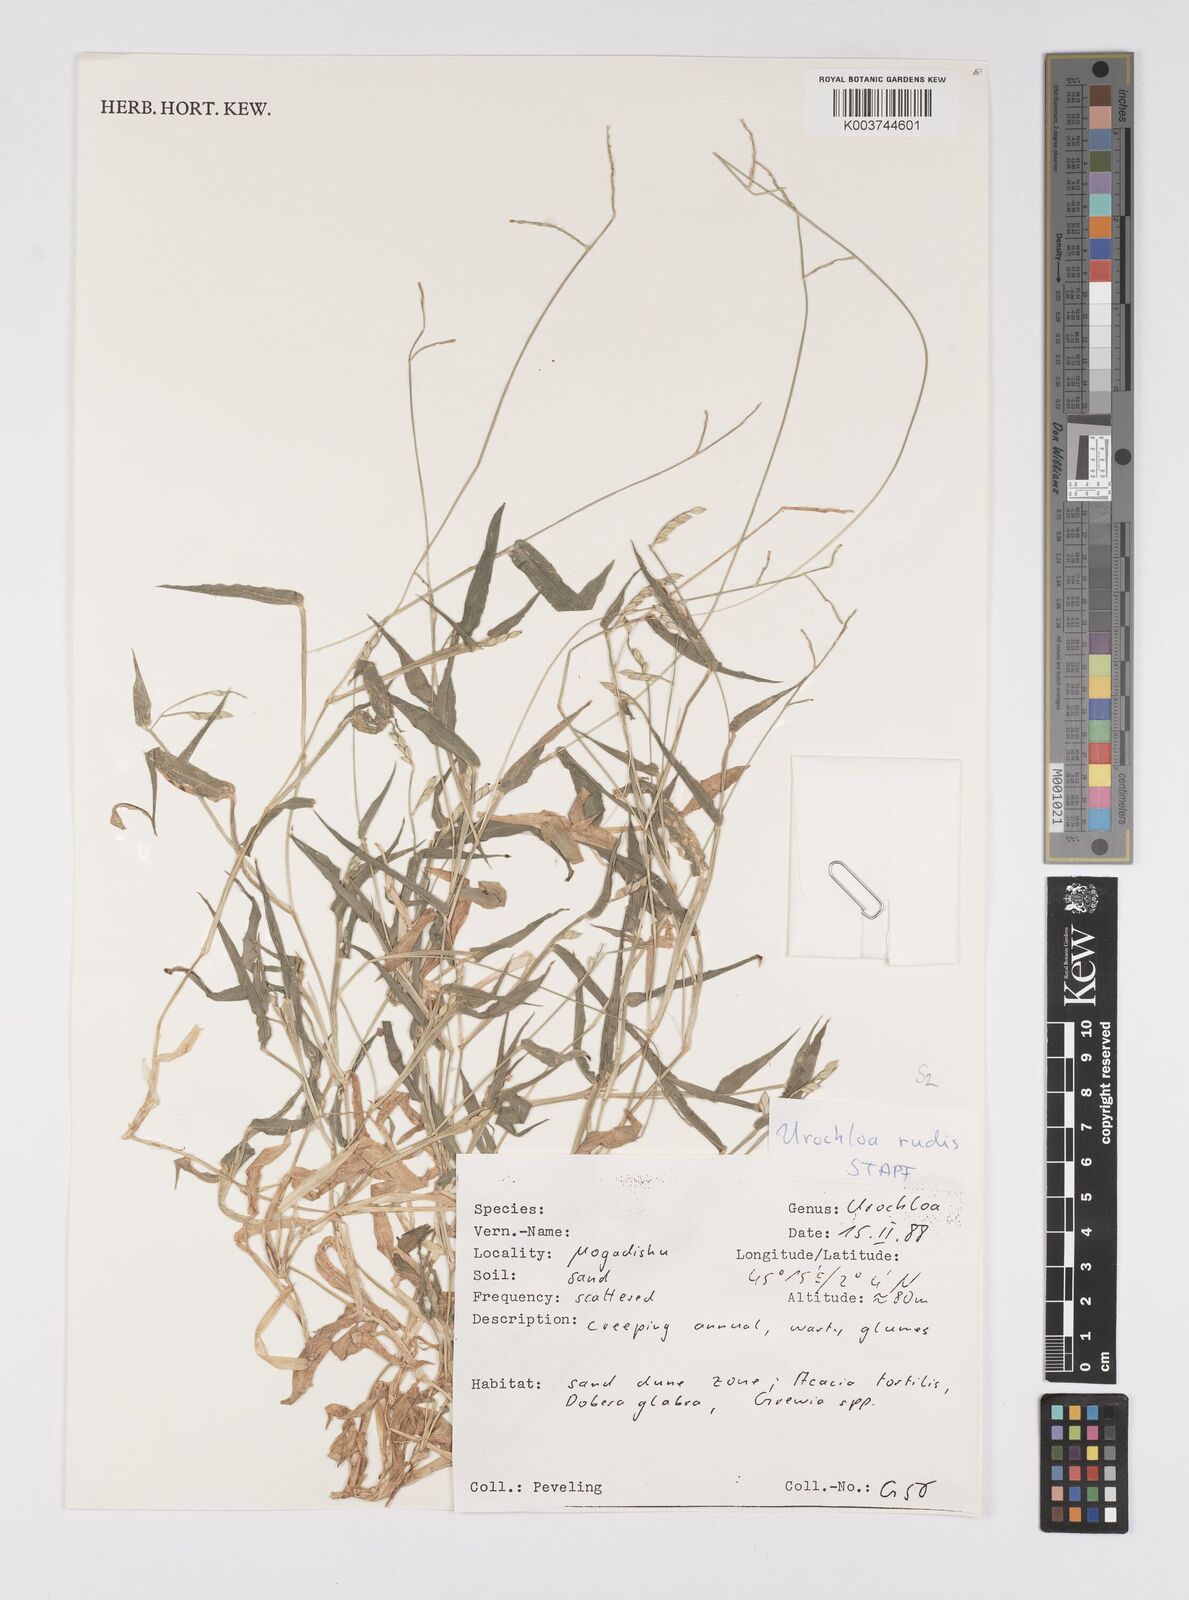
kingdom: Plantae
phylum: Tracheophyta
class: Liliopsida
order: Poales
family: Poaceae
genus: Urochloa
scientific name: Urochloa rudis
